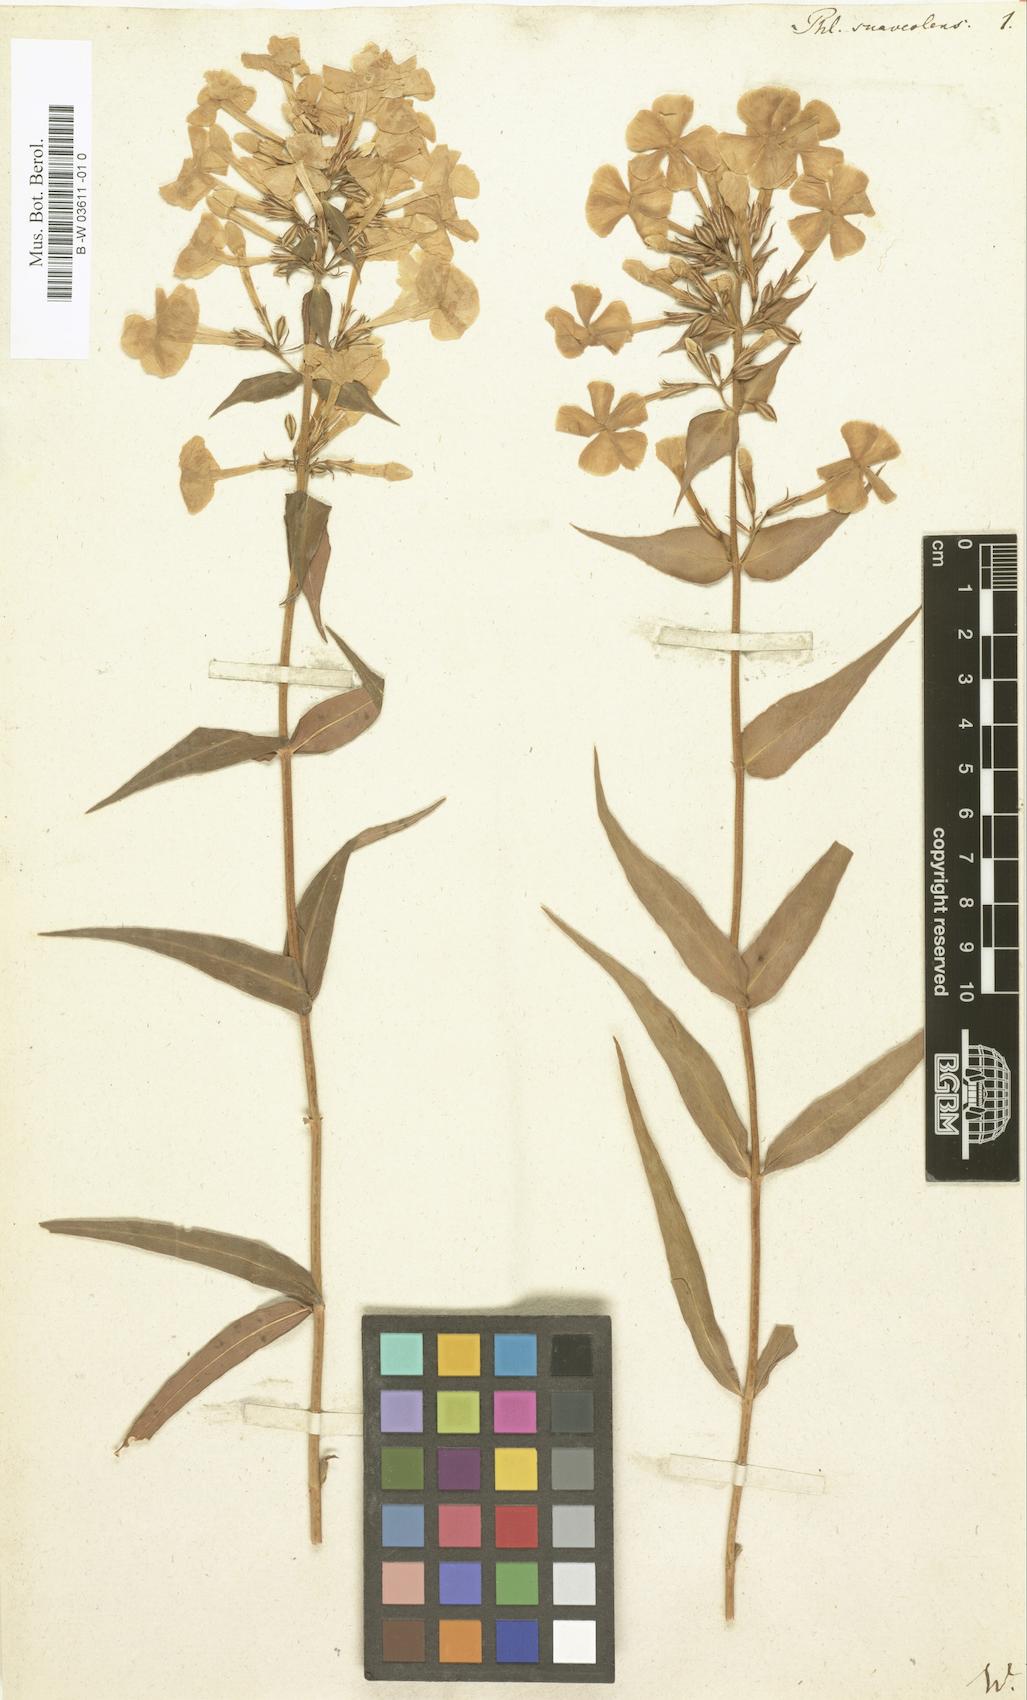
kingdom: Plantae
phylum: Tracheophyta
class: Magnoliopsida
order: Ericales
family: Polemoniaceae
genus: Phlox
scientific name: Phlox maculata
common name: Meadow phlox
